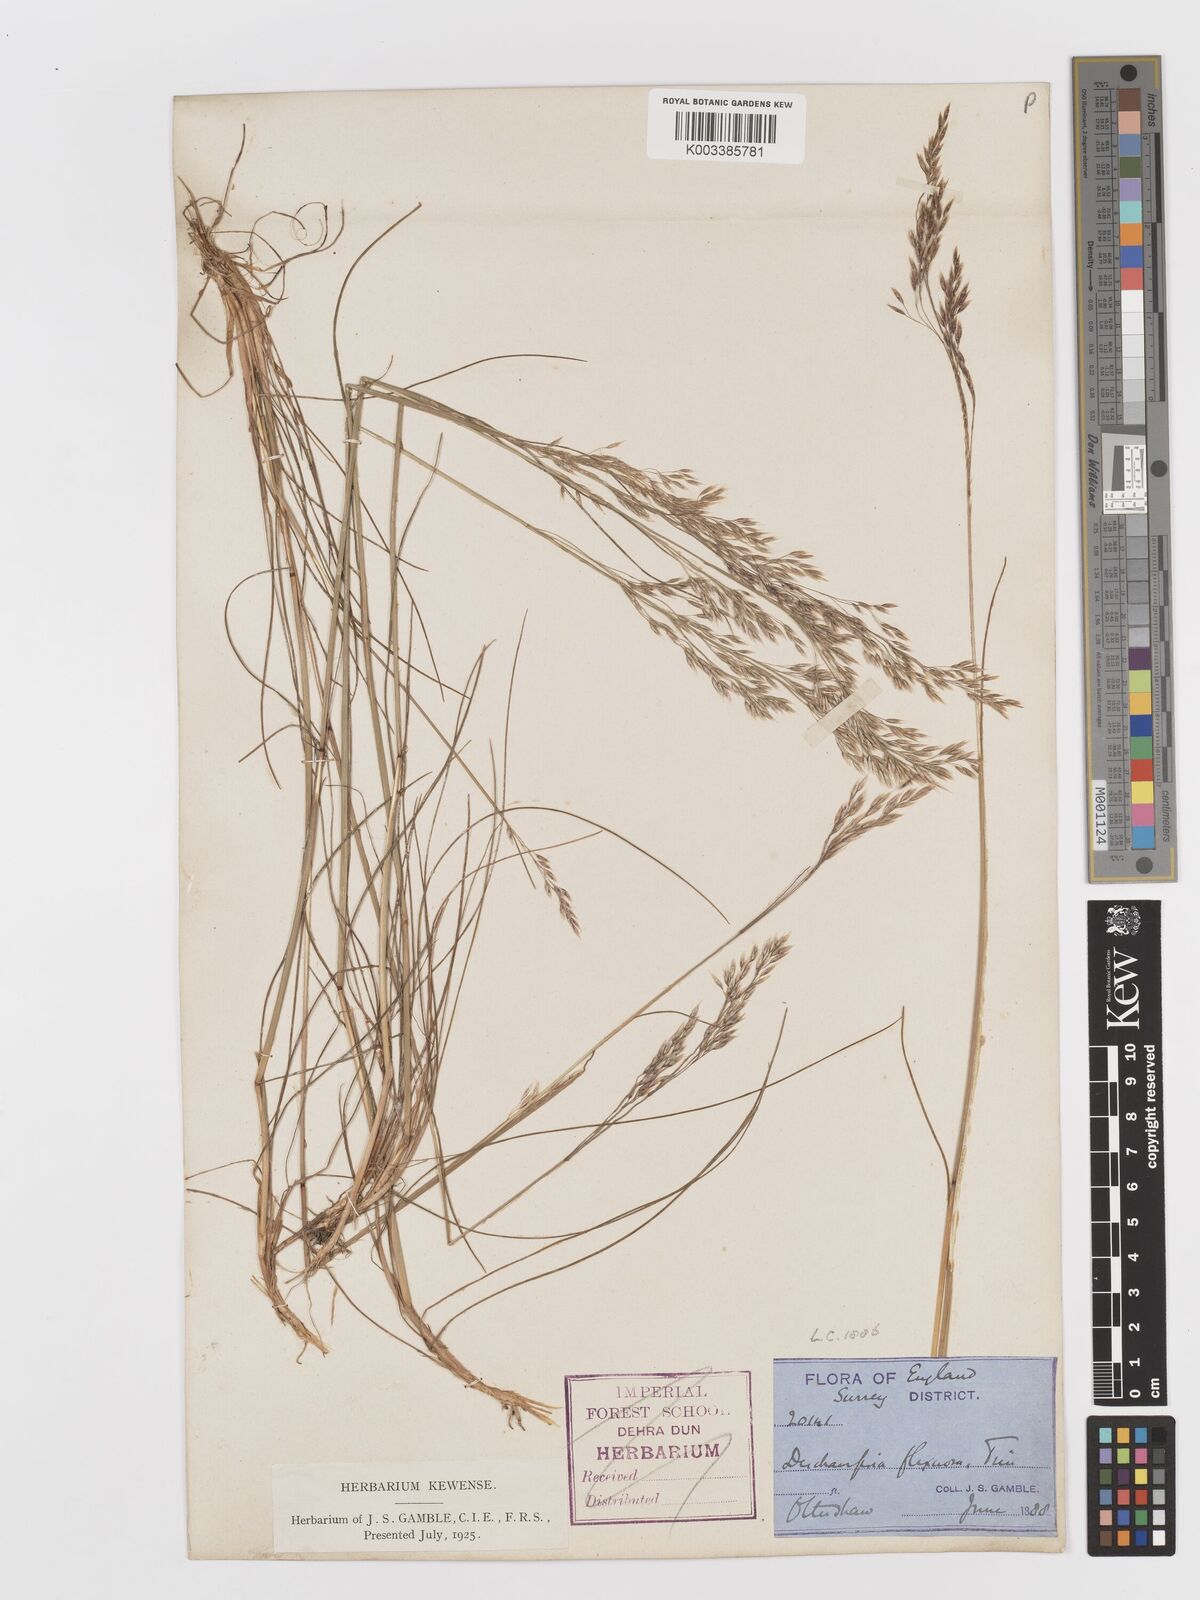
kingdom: Plantae
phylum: Tracheophyta
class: Liliopsida
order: Poales
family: Poaceae
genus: Avenella
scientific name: Avenella flexuosa
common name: Wavy hairgrass
